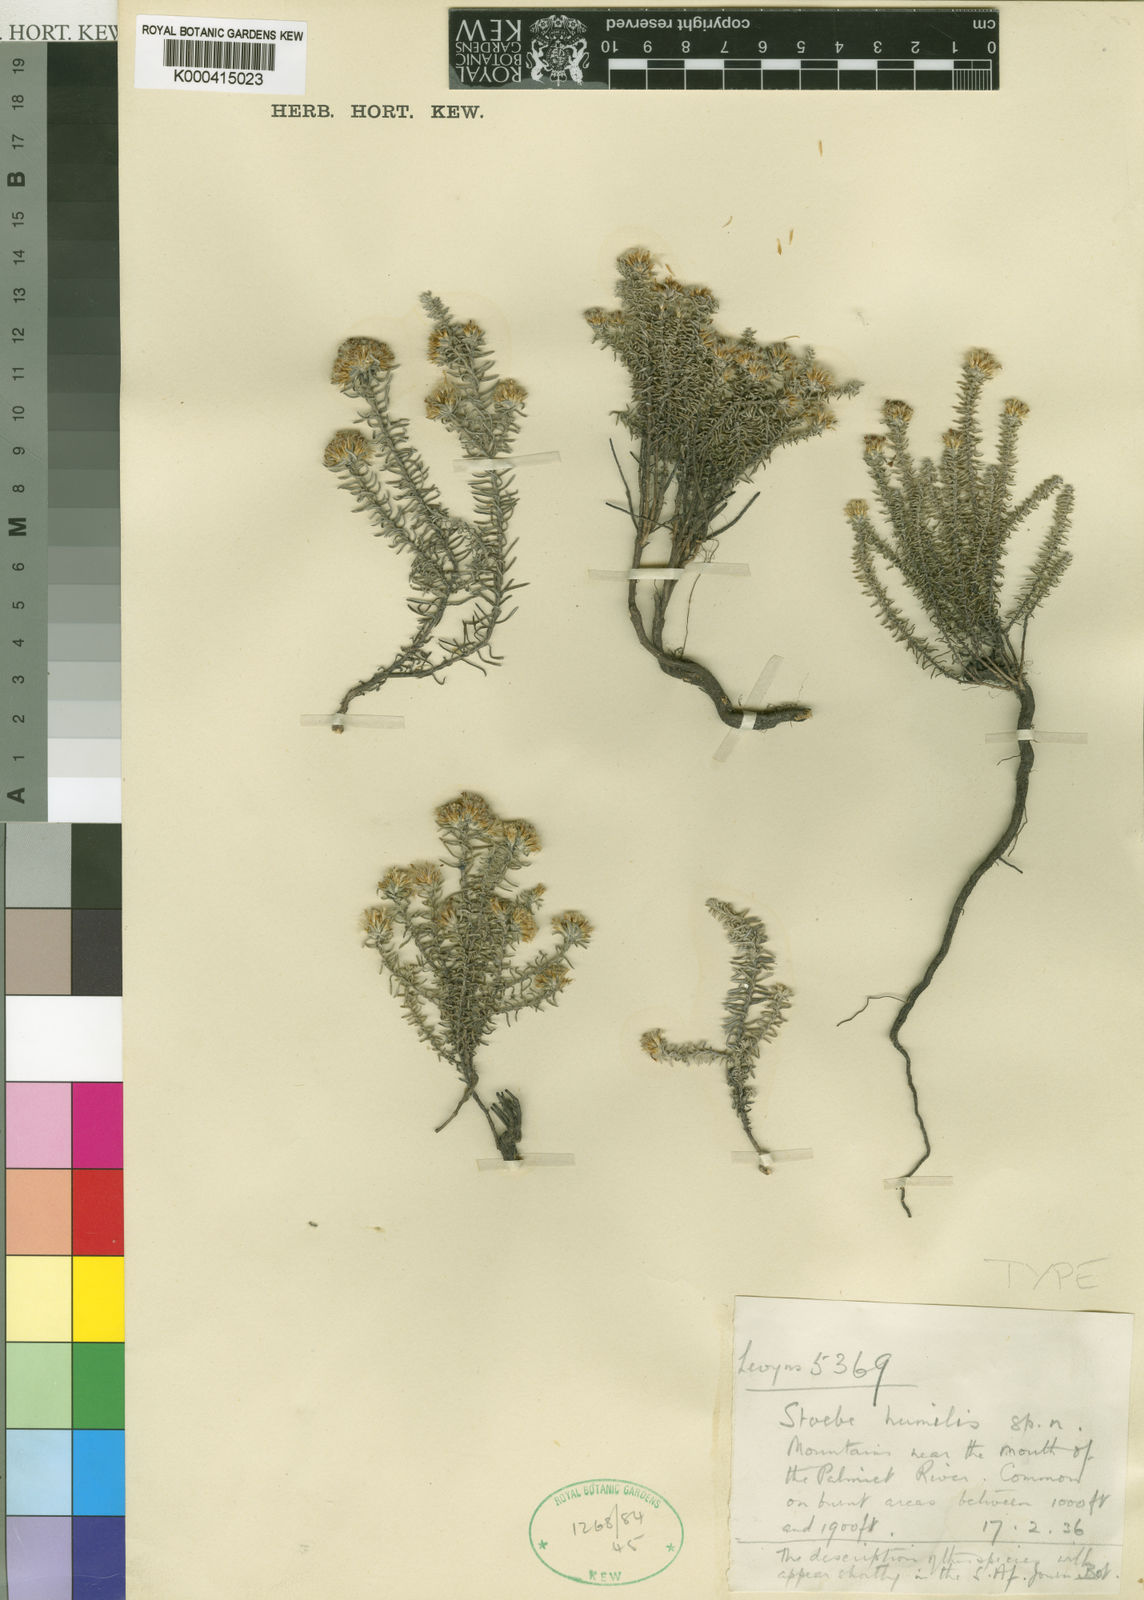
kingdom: Plantae
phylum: Tracheophyta
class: Magnoliopsida
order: Asterales
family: Asteraceae
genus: Stoebe
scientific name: Stoebe cyathuloides
